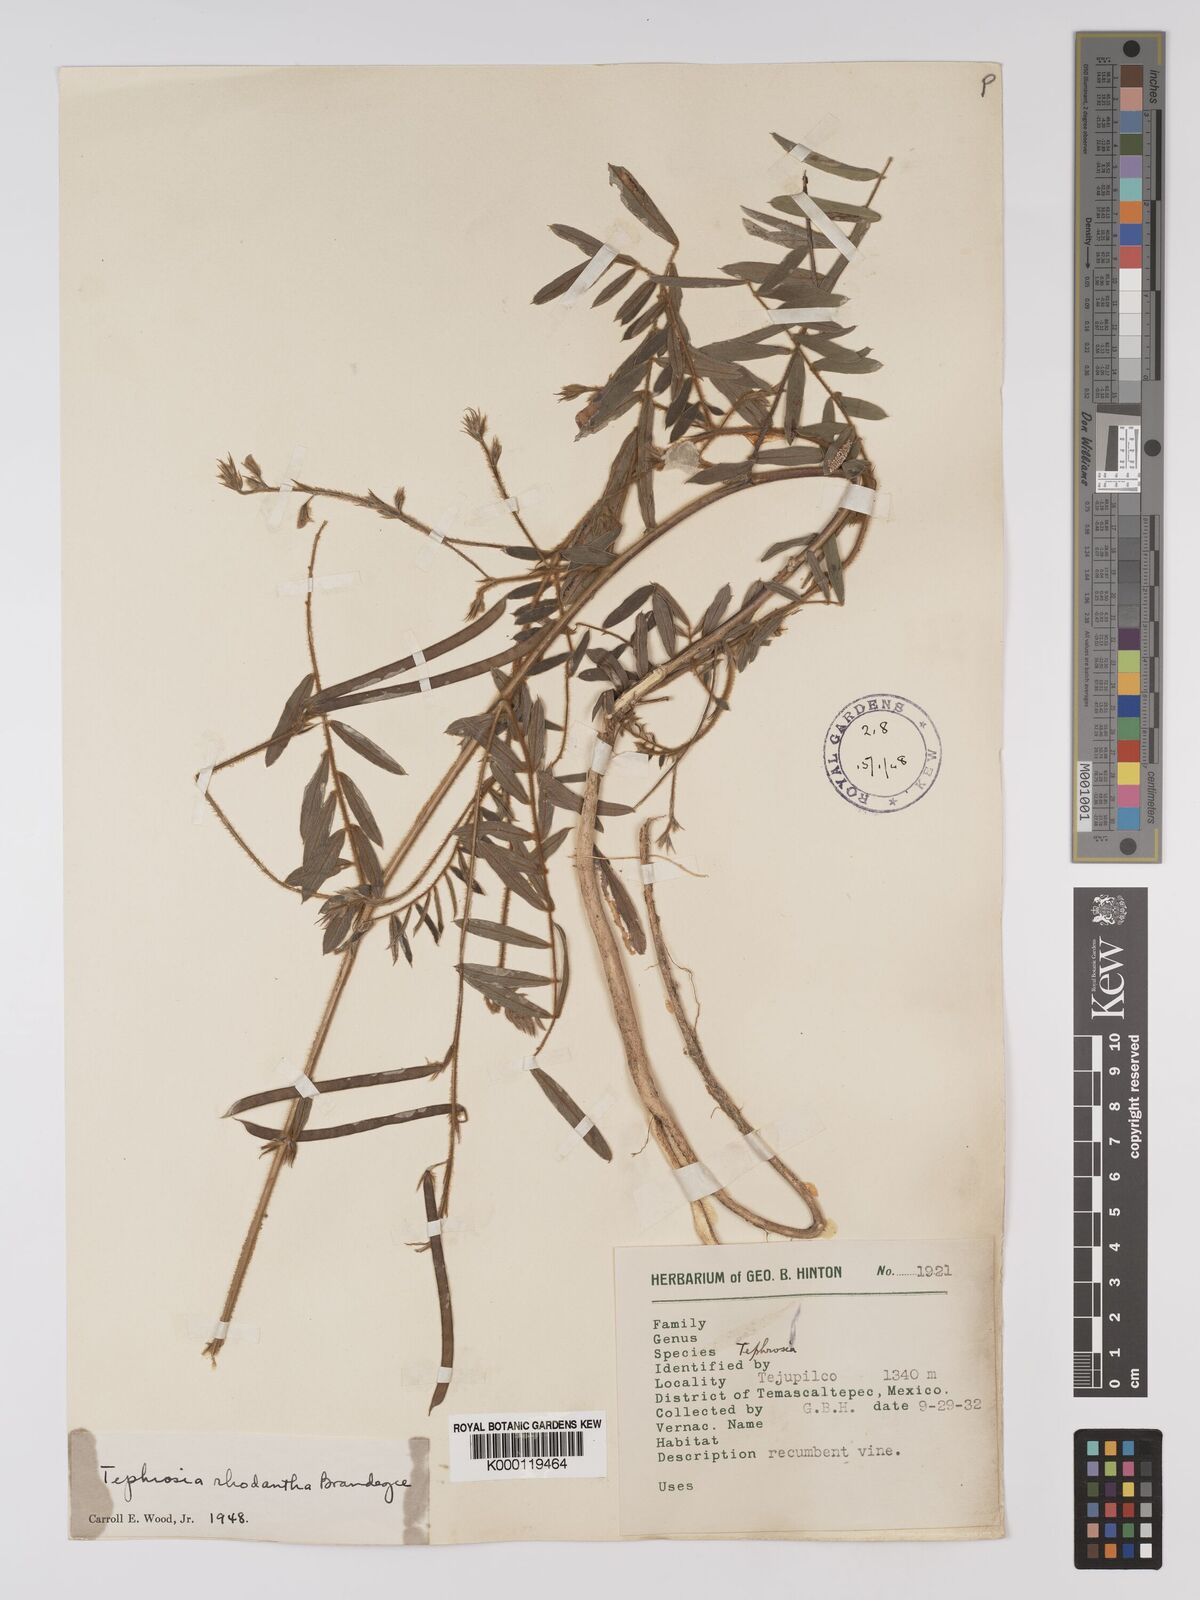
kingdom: Plantae
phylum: Tracheophyta
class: Magnoliopsida
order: Fabales
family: Fabaceae
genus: Tephrosia
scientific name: Tephrosia rhodantha
